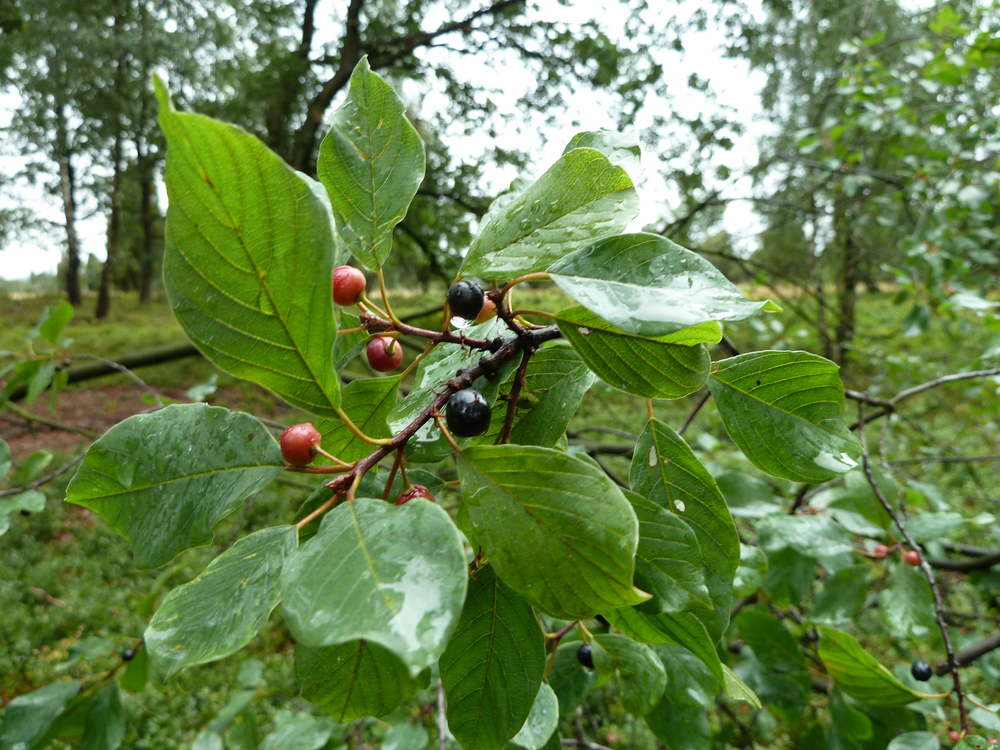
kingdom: Plantae
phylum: Tracheophyta
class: Magnoliopsida
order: Rosales
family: Rhamnaceae
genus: Frangula
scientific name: Frangula alnus
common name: Alder buckthorn
